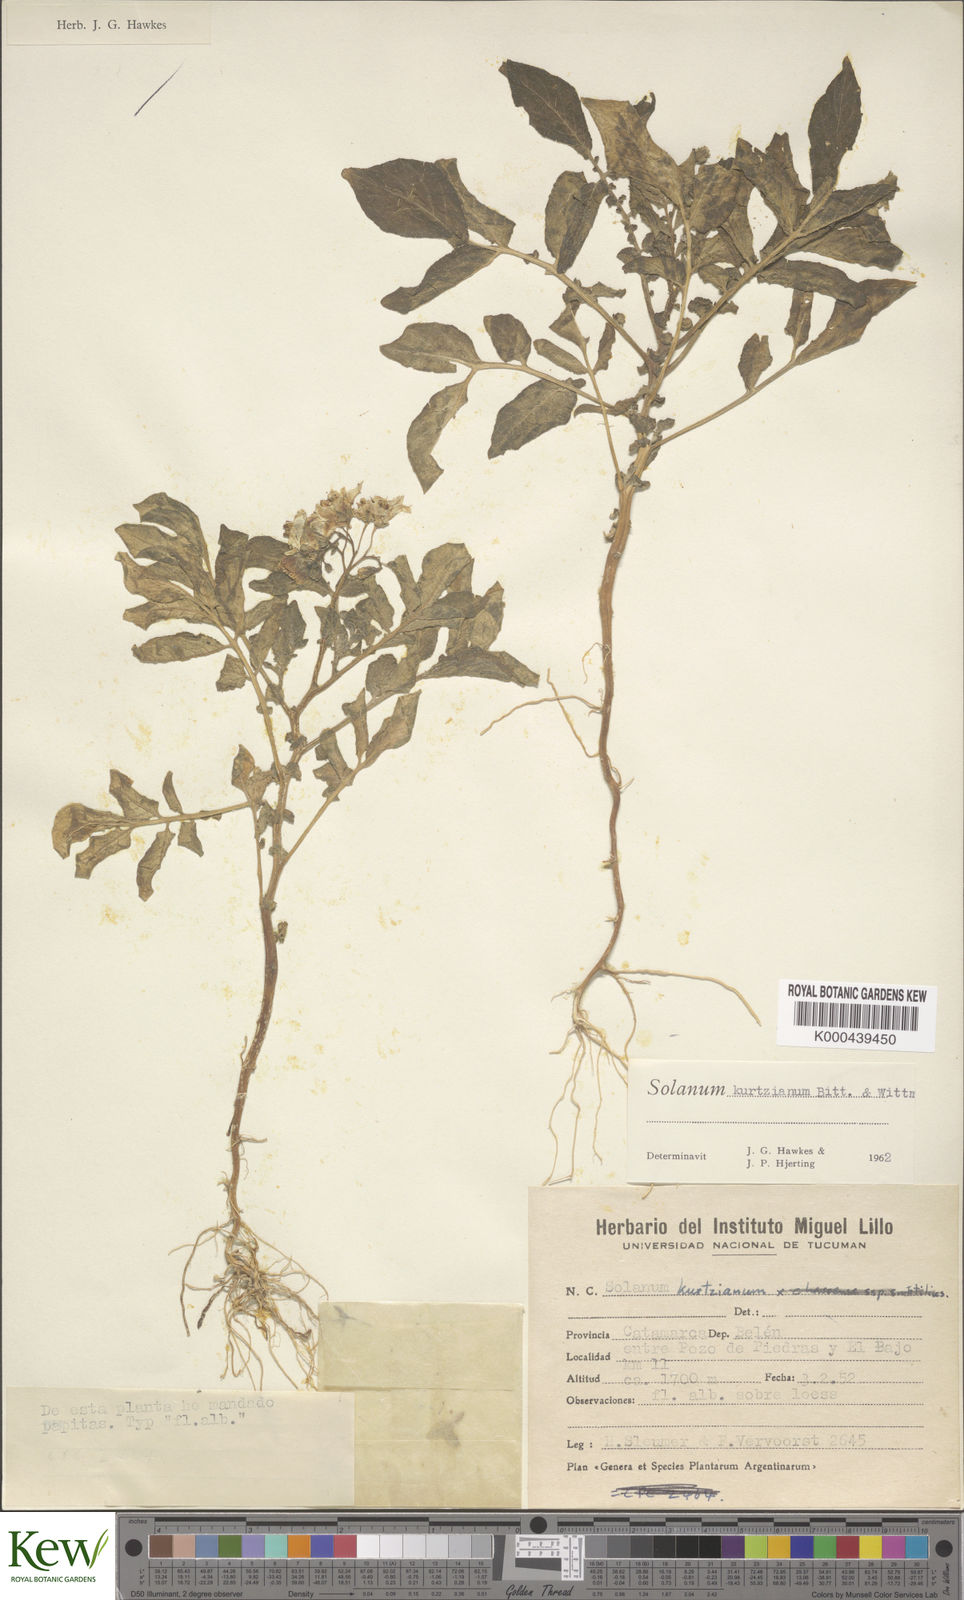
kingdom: Plantae
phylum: Tracheophyta
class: Magnoliopsida
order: Solanales
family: Solanaceae
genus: Solanum
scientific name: Solanum kurtzianum
